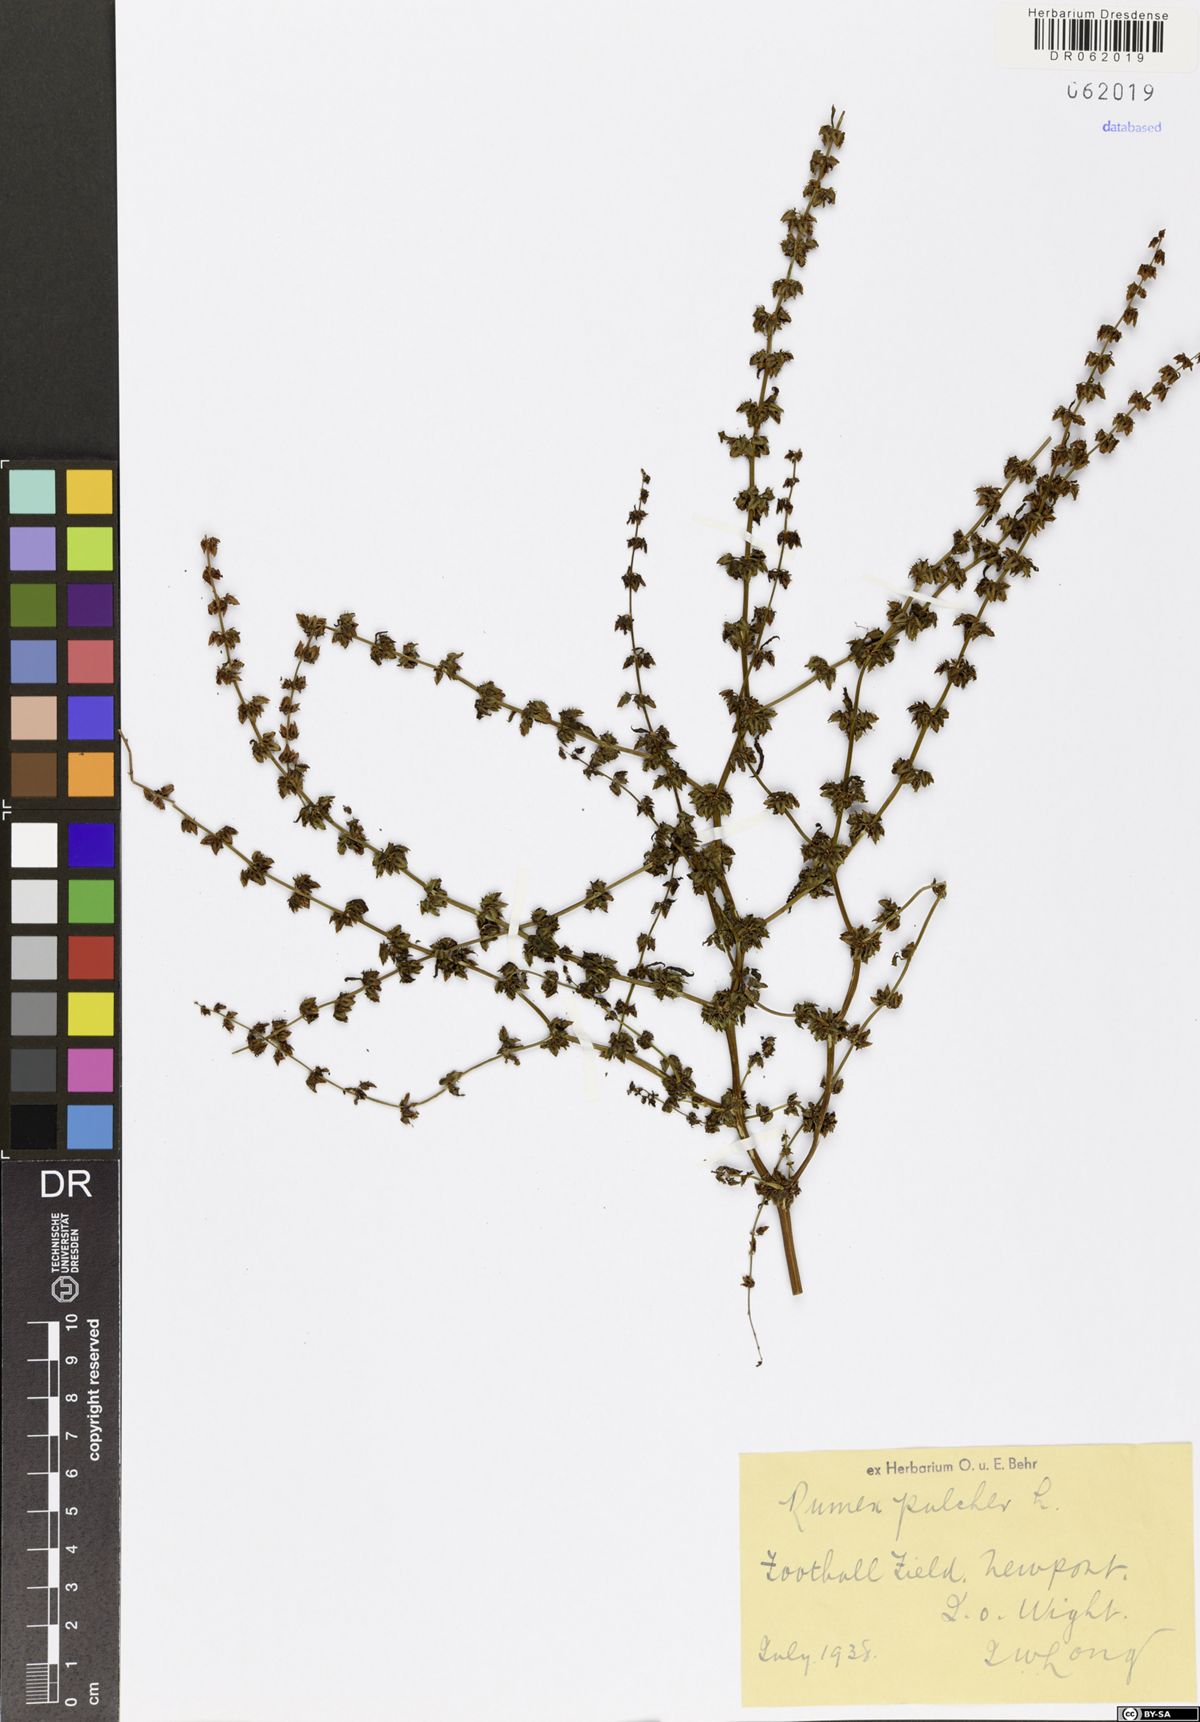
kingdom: Plantae
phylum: Tracheophyta
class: Magnoliopsida
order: Caryophyllales
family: Polygonaceae
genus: Rumex
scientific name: Rumex pulcher
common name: Fiddle dock
